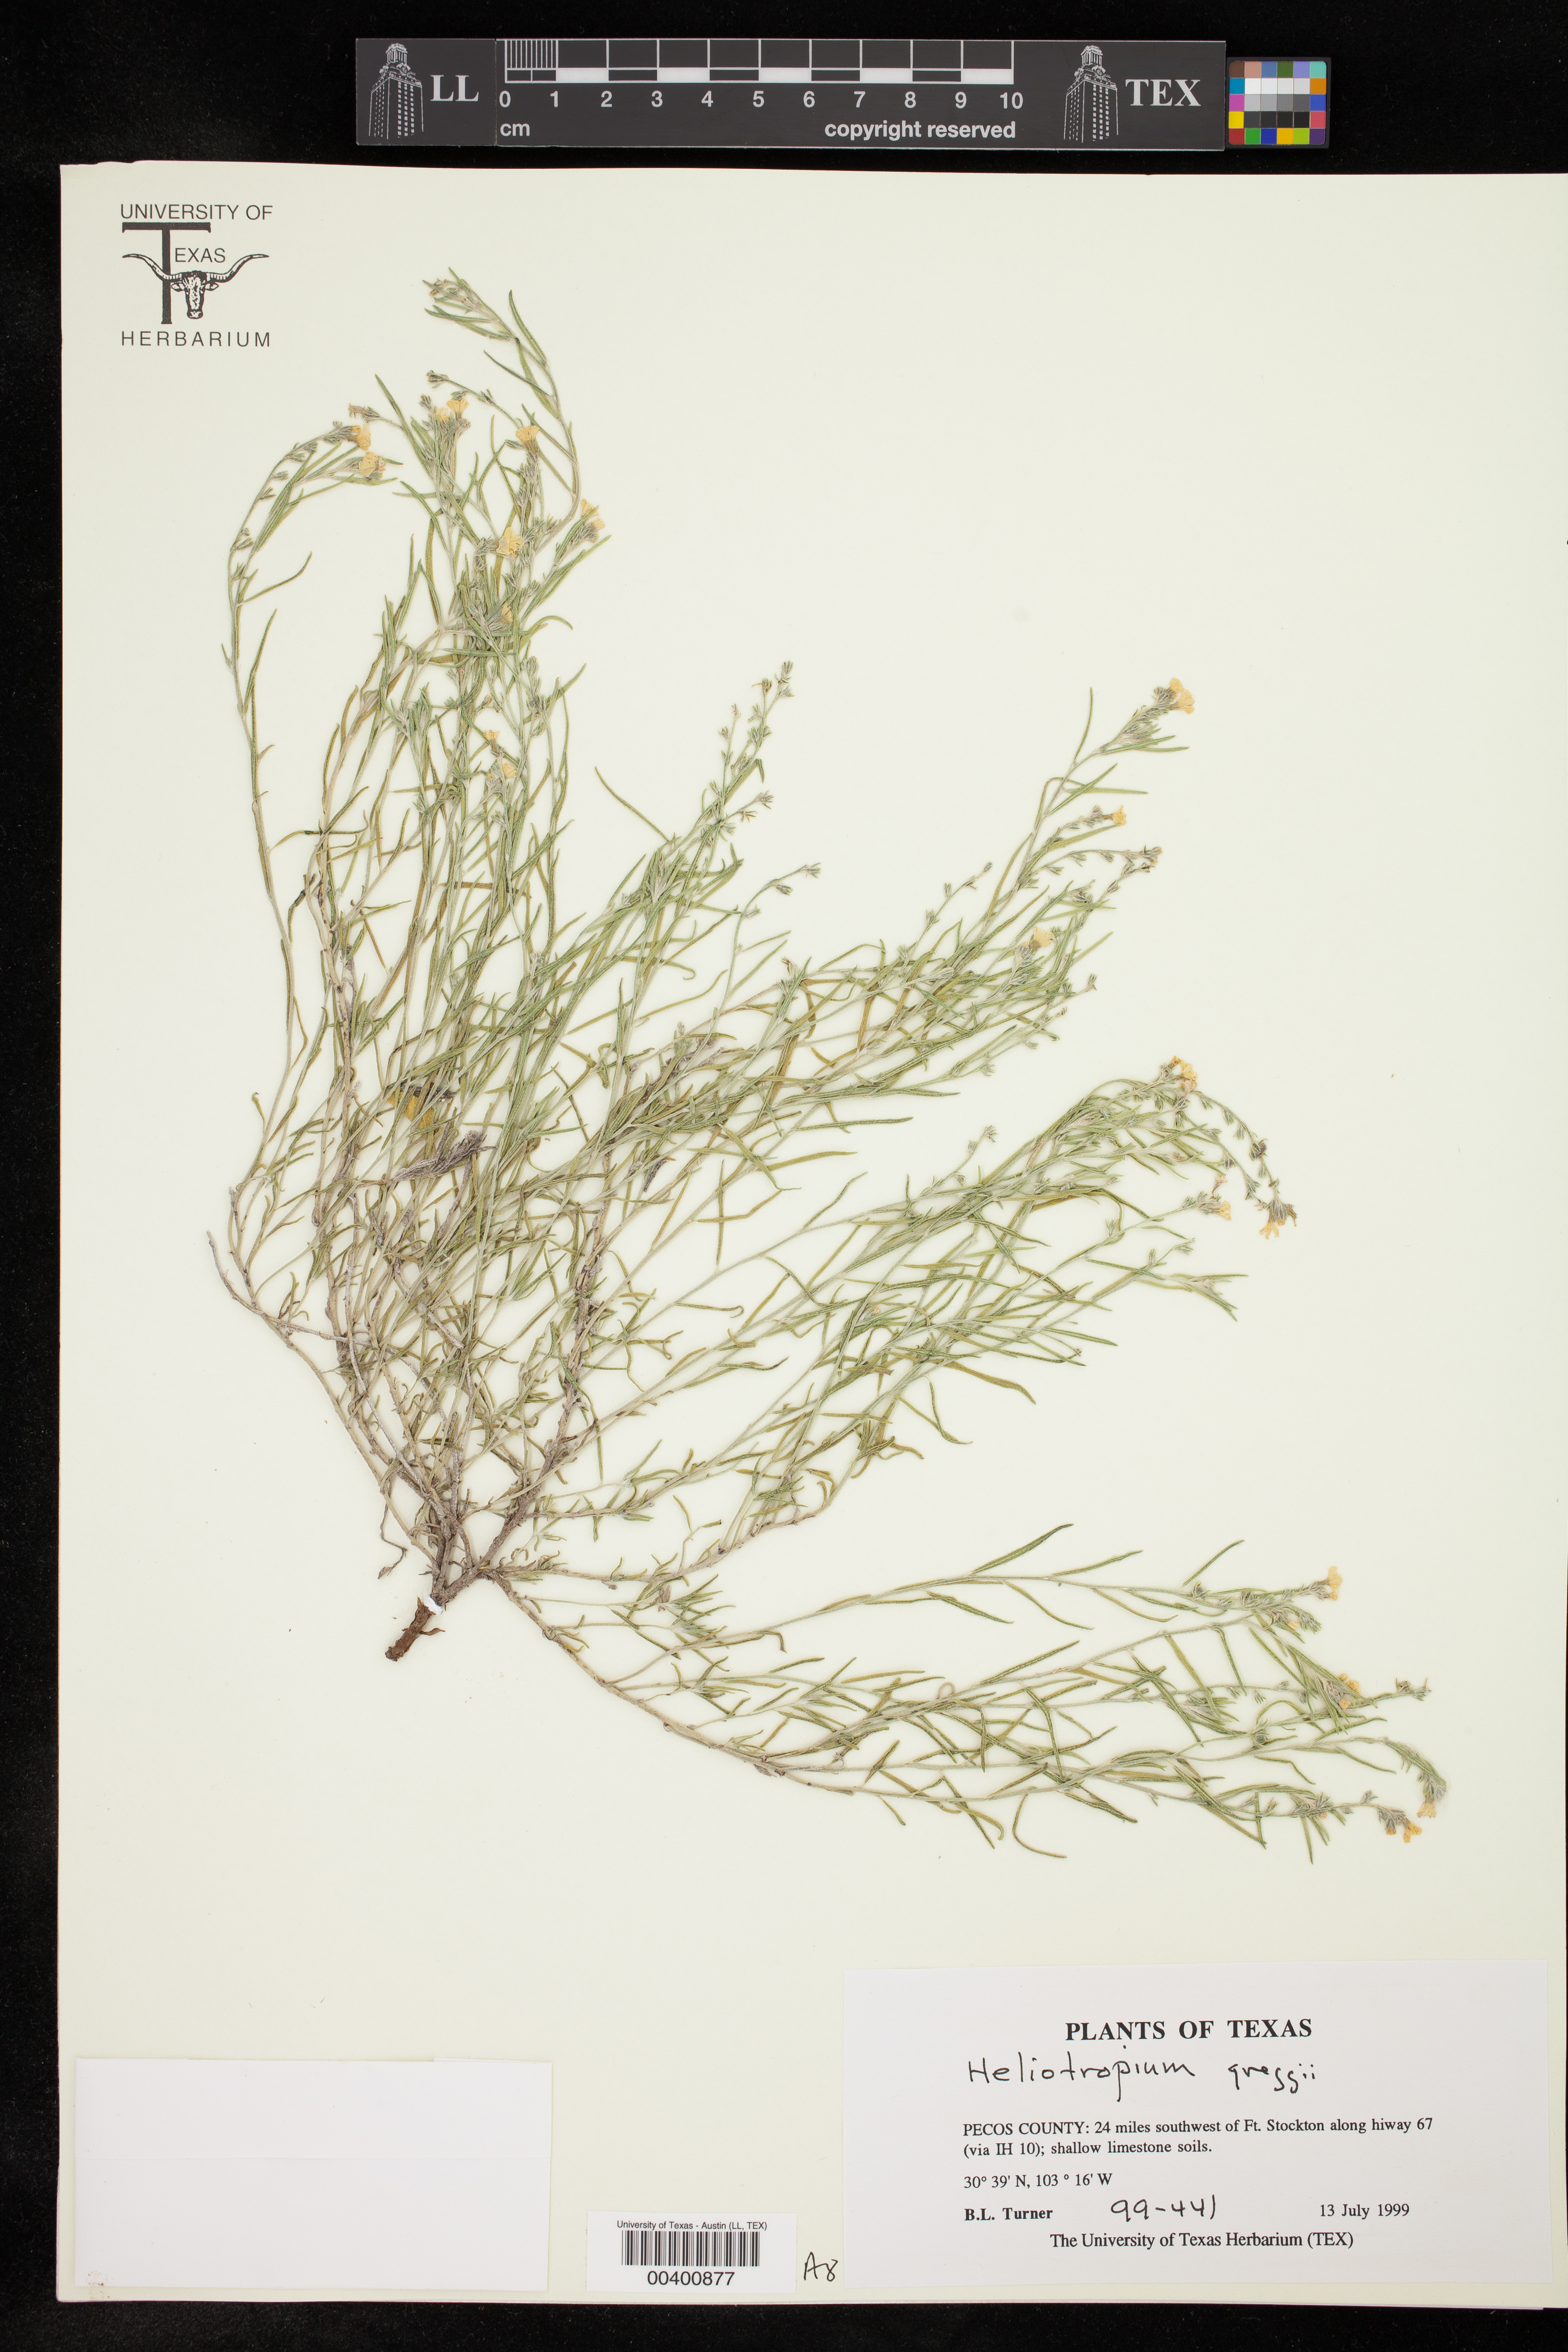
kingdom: Plantae
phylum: Tracheophyta
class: Magnoliopsida
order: Boraginales
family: Heliotropiaceae
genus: Euploca
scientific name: Euploca greggii
